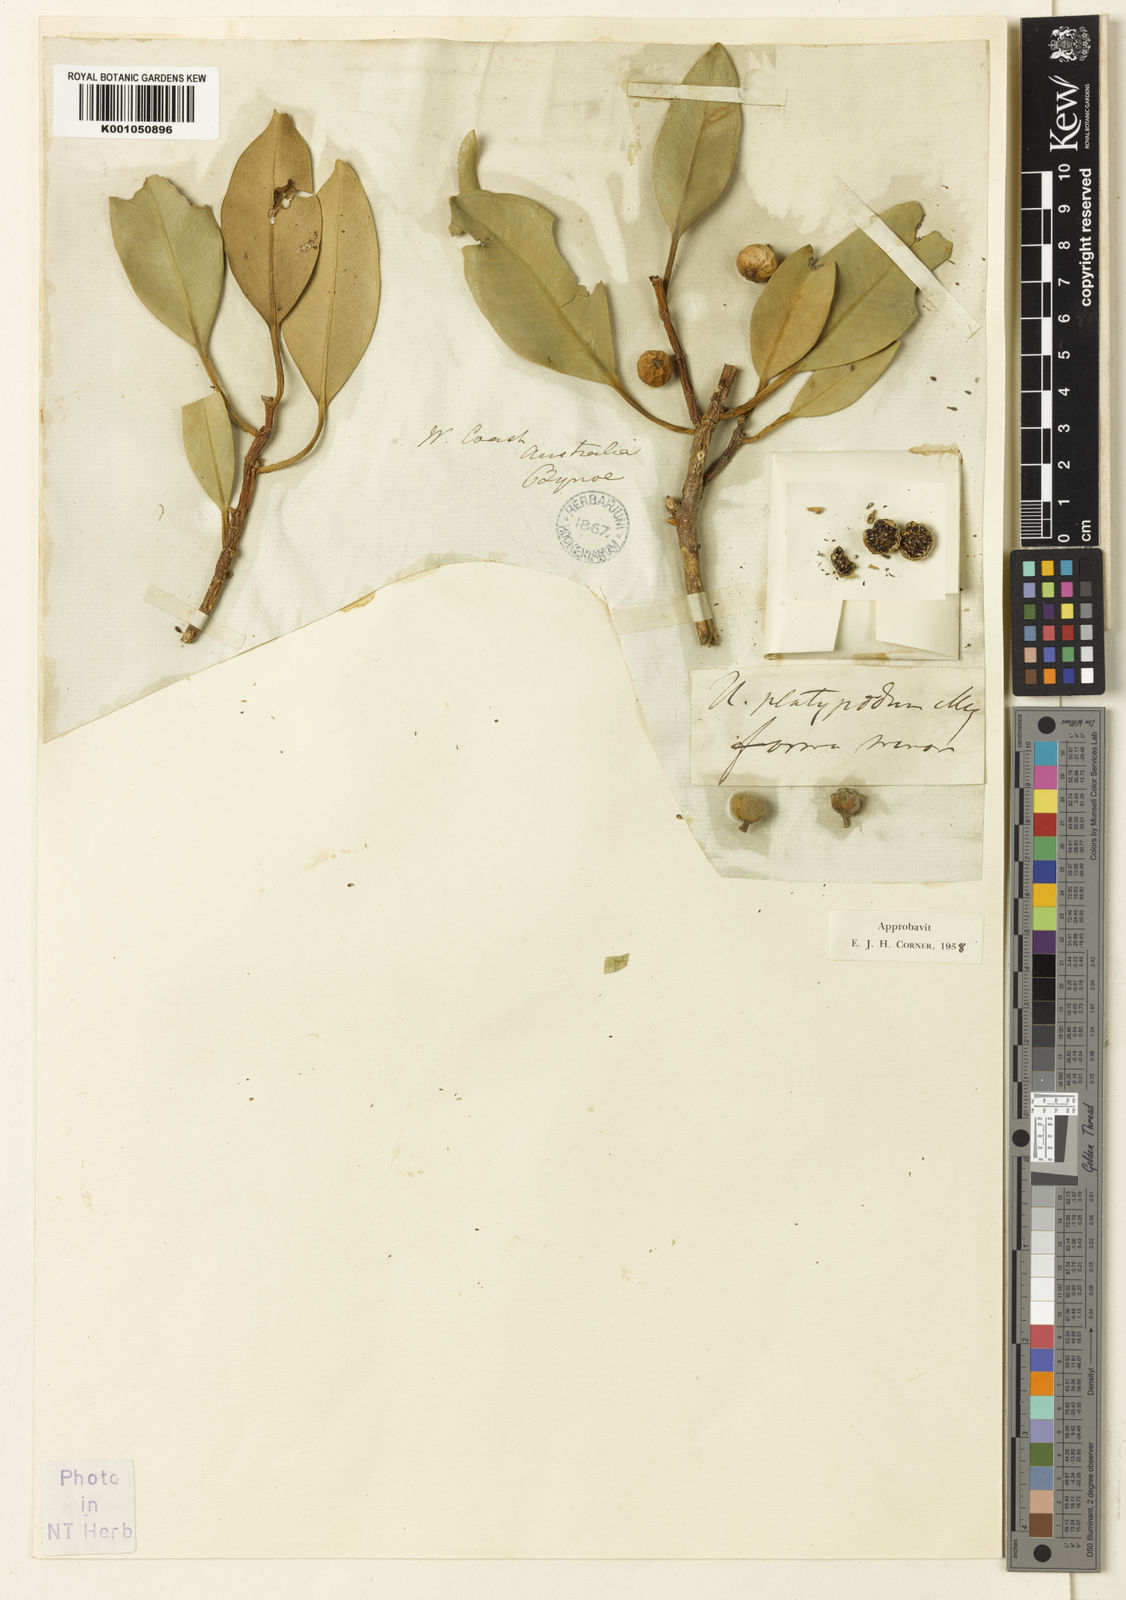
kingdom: Plantae
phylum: Tracheophyta
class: Magnoliopsida
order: Rosales
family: Moraceae
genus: Ficus
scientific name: Ficus platypoda
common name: Fig
